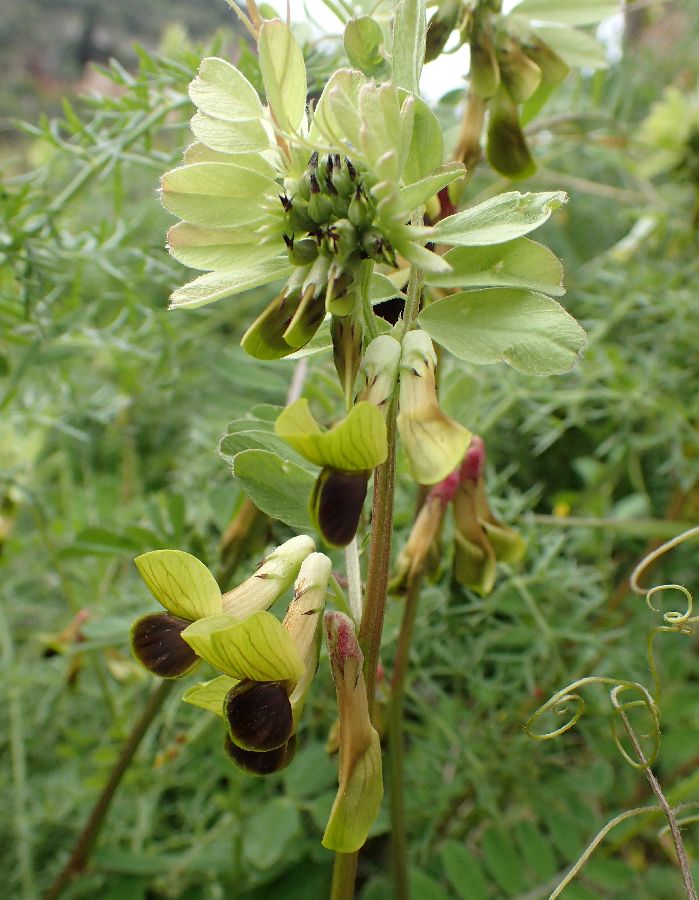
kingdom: Plantae
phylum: Tracheophyta
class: Magnoliopsida
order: Fabales
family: Fabaceae
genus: Vicia
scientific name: Vicia melanops
